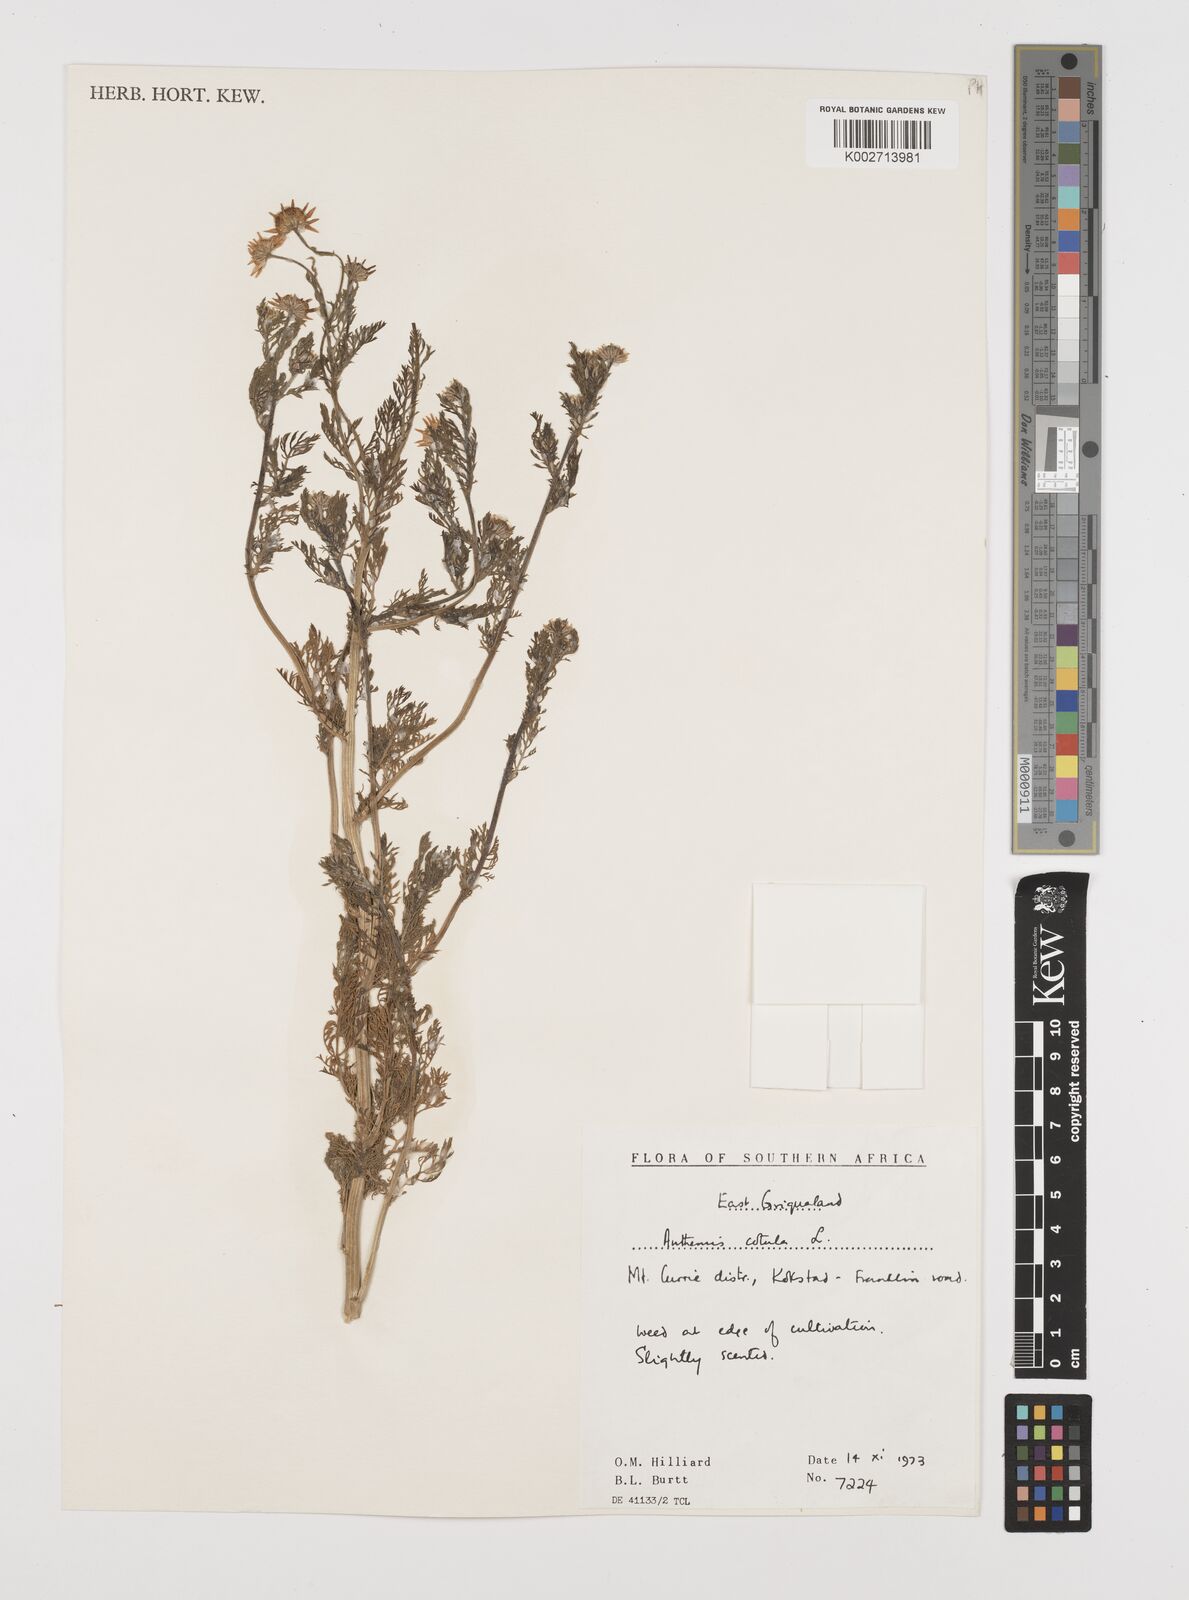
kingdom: Plantae
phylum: Tracheophyta
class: Magnoliopsida
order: Asterales
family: Asteraceae
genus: Anthemis
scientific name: Anthemis cotula
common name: Stinking chamomile
